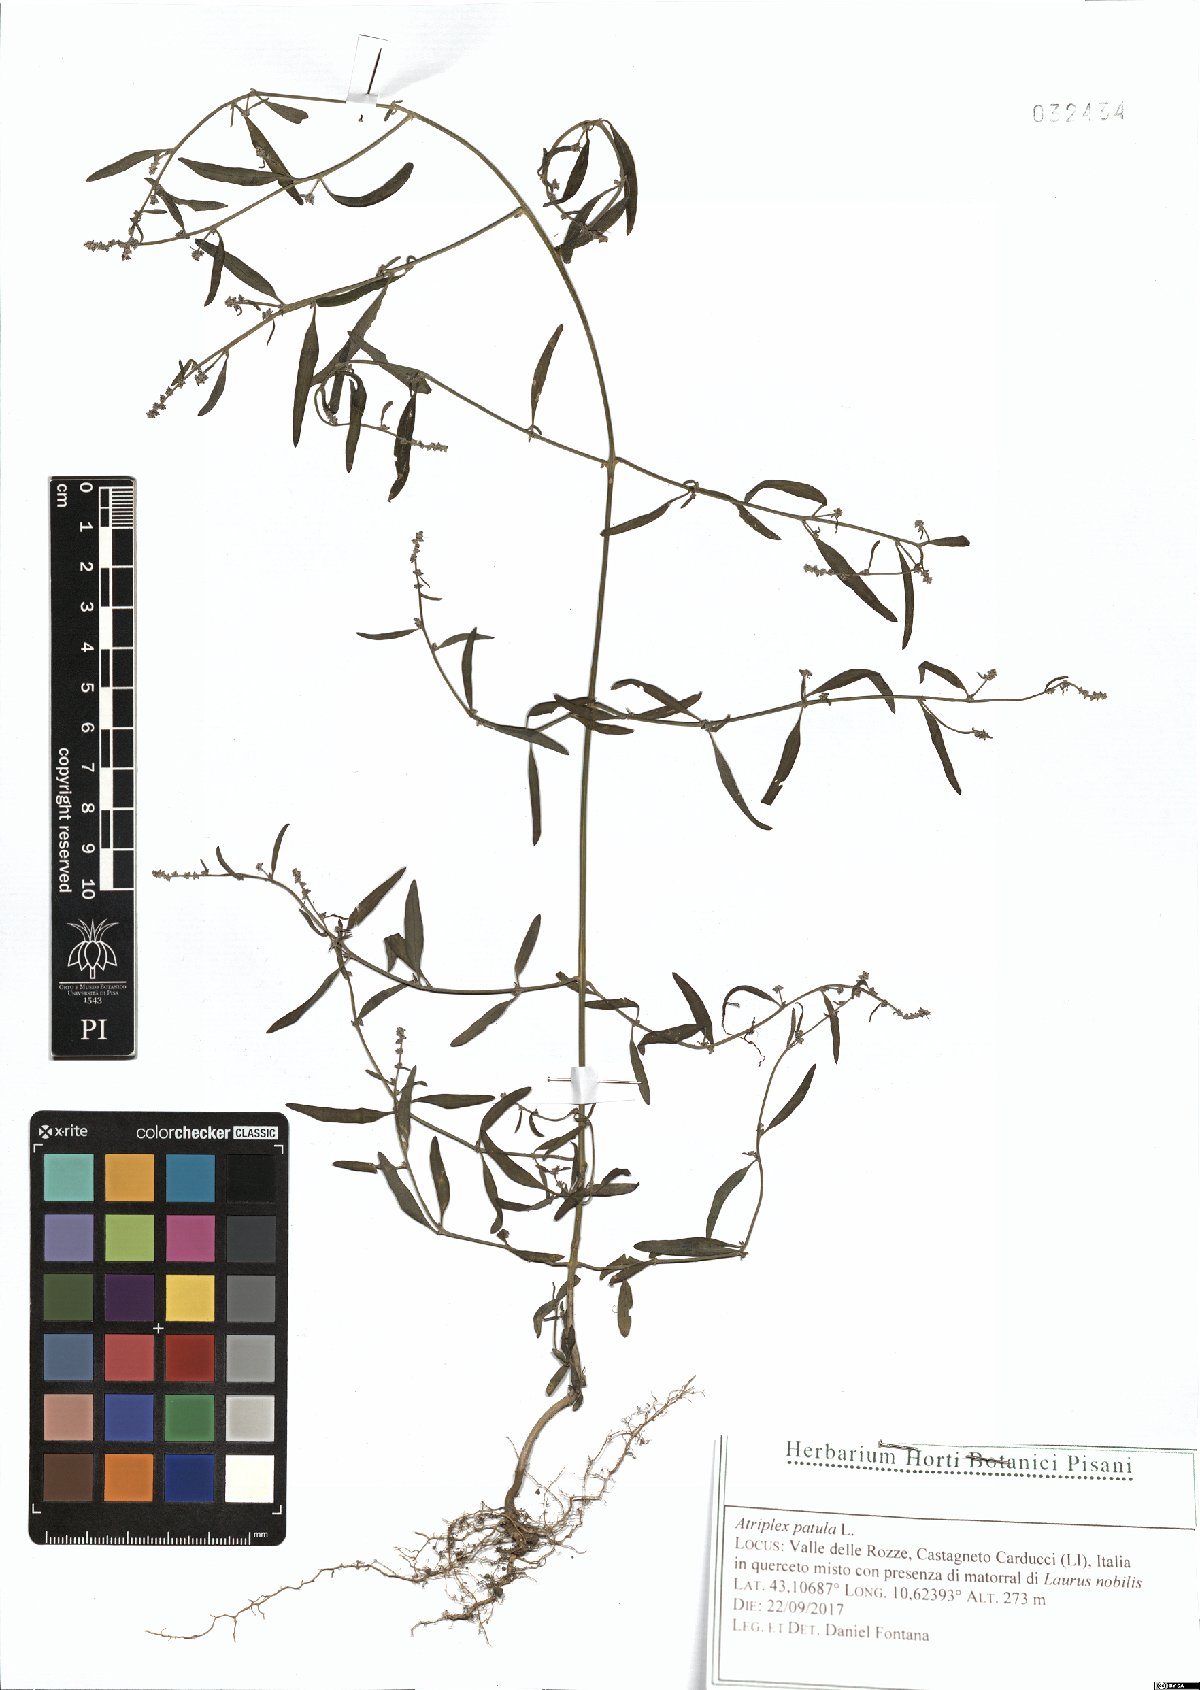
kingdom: Plantae
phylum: Tracheophyta
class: Magnoliopsida
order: Caryophyllales
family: Amaranthaceae
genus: Atriplex
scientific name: Atriplex patula
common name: Common orache
